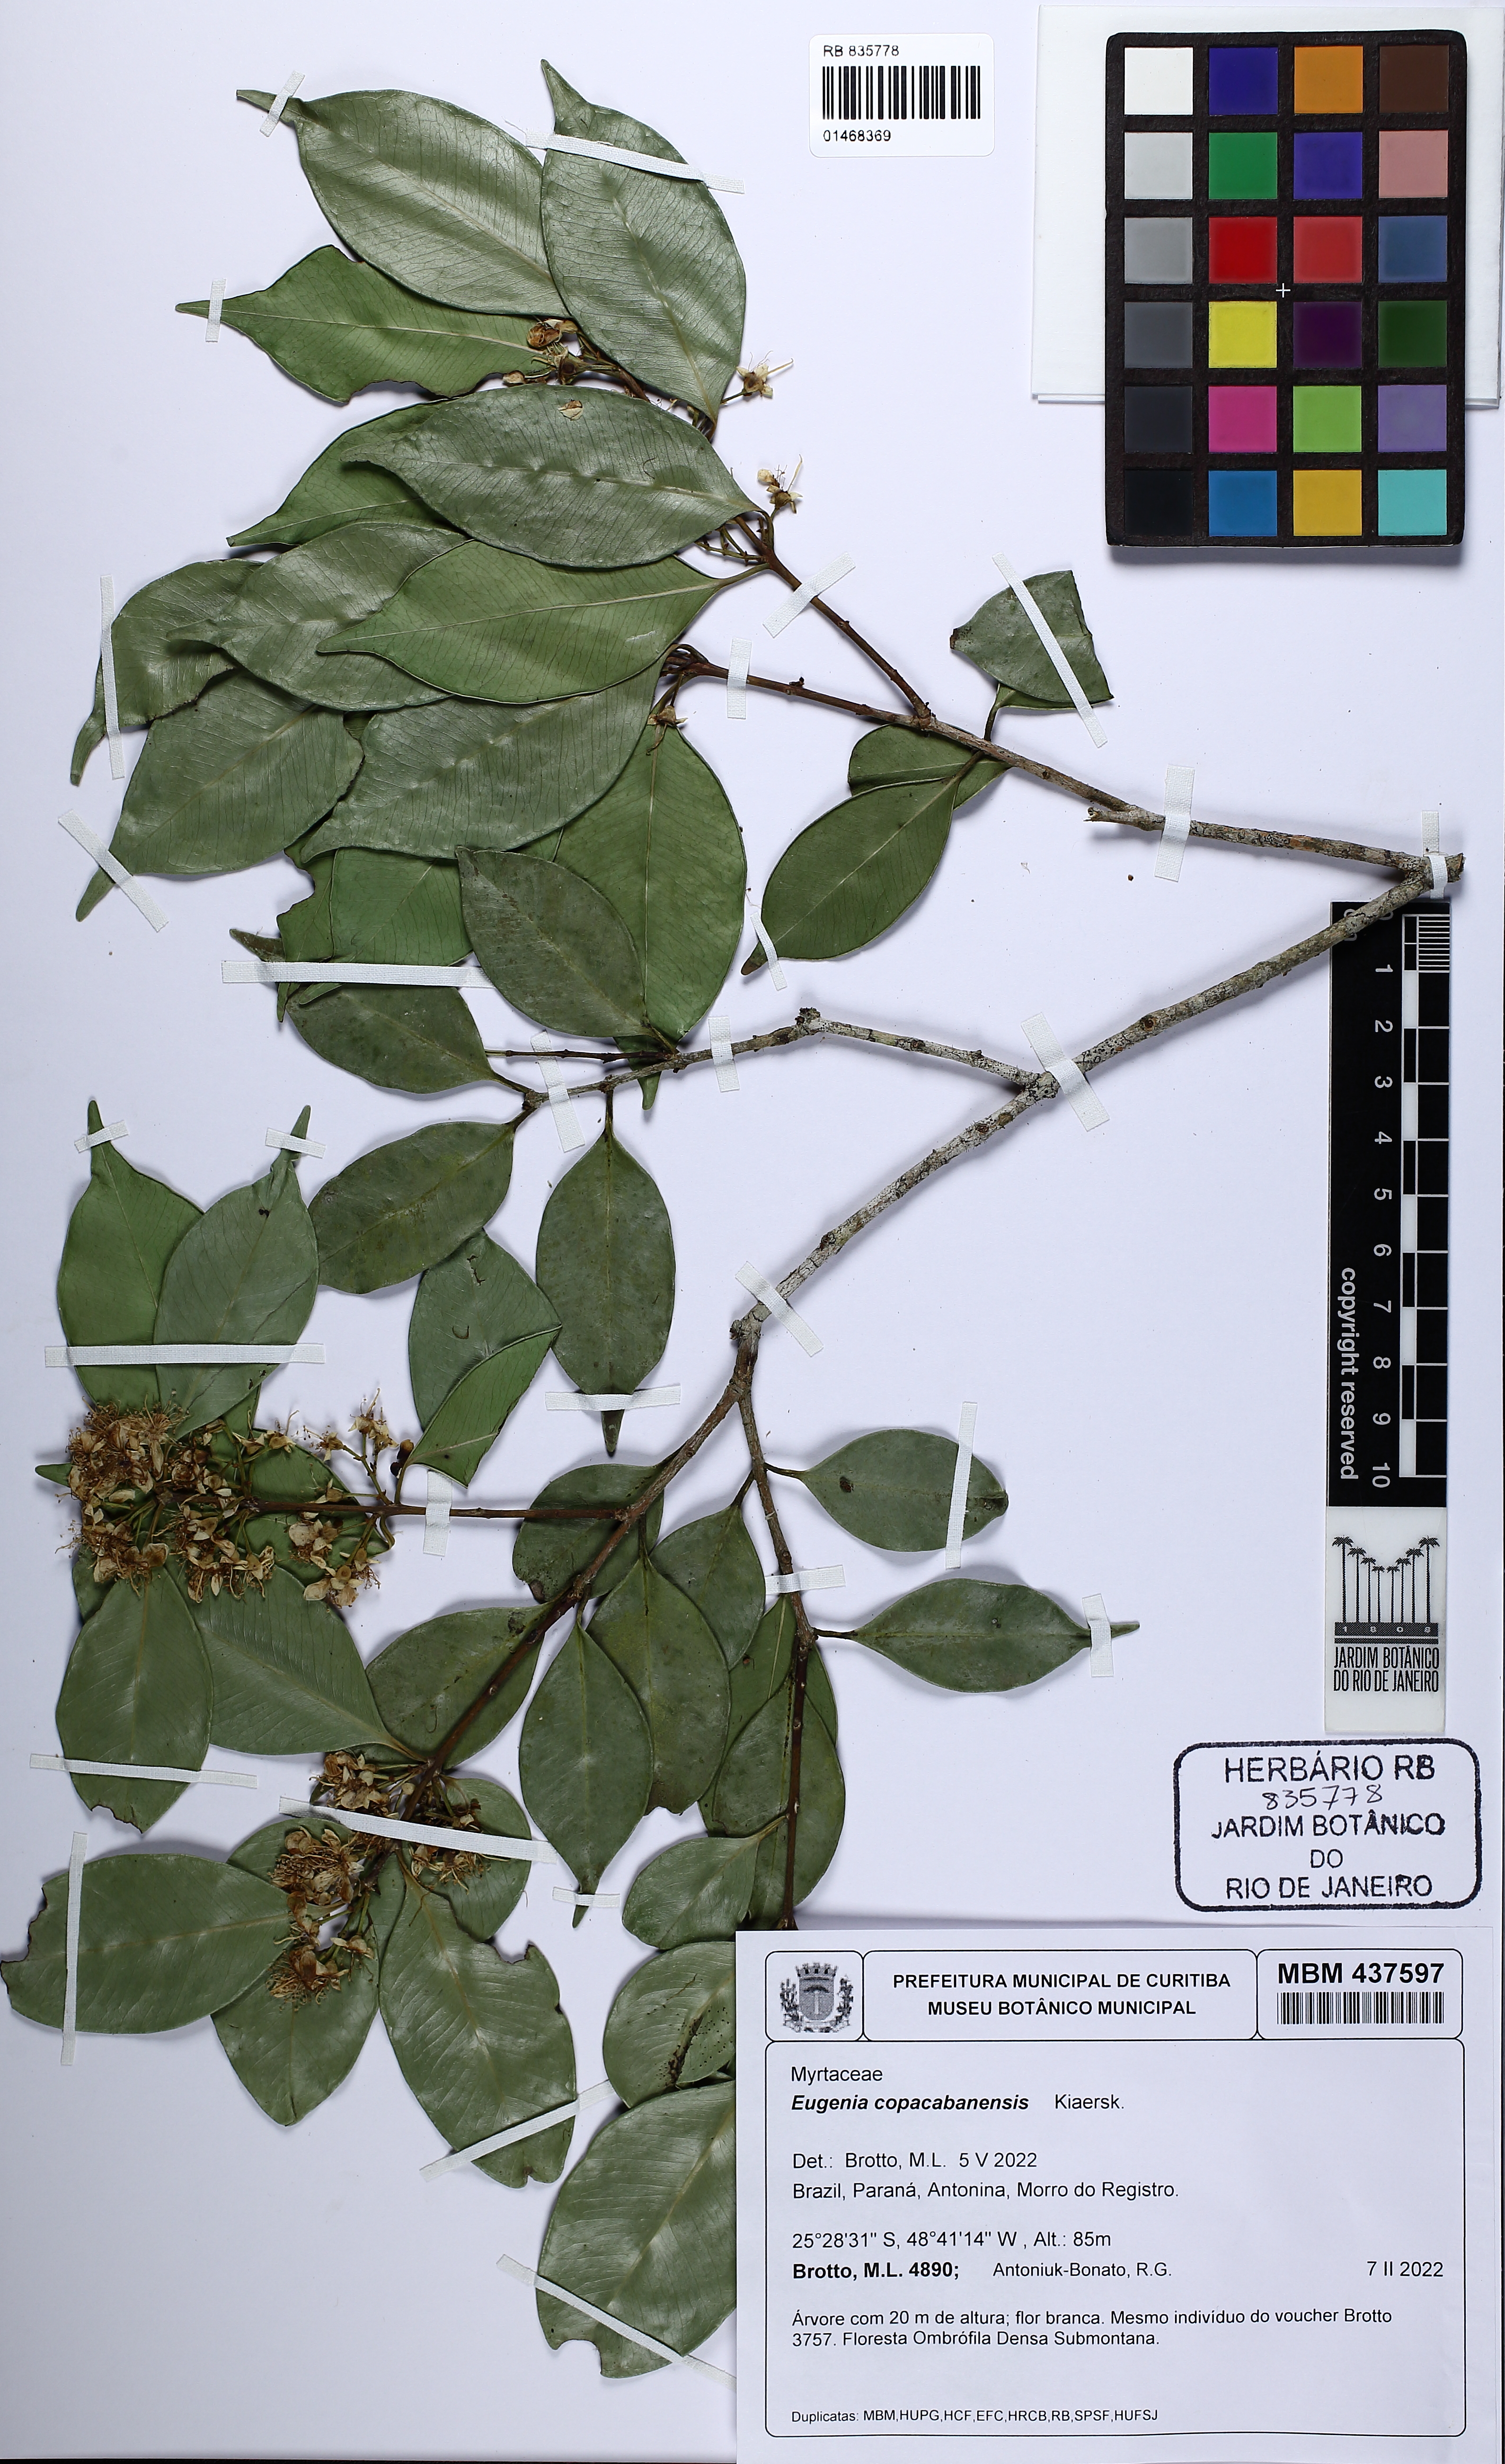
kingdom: Plantae
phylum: Tracheophyta
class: Magnoliopsida
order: Myrtales
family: Myrtaceae
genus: Eugenia
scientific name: Eugenia copacabanensis
